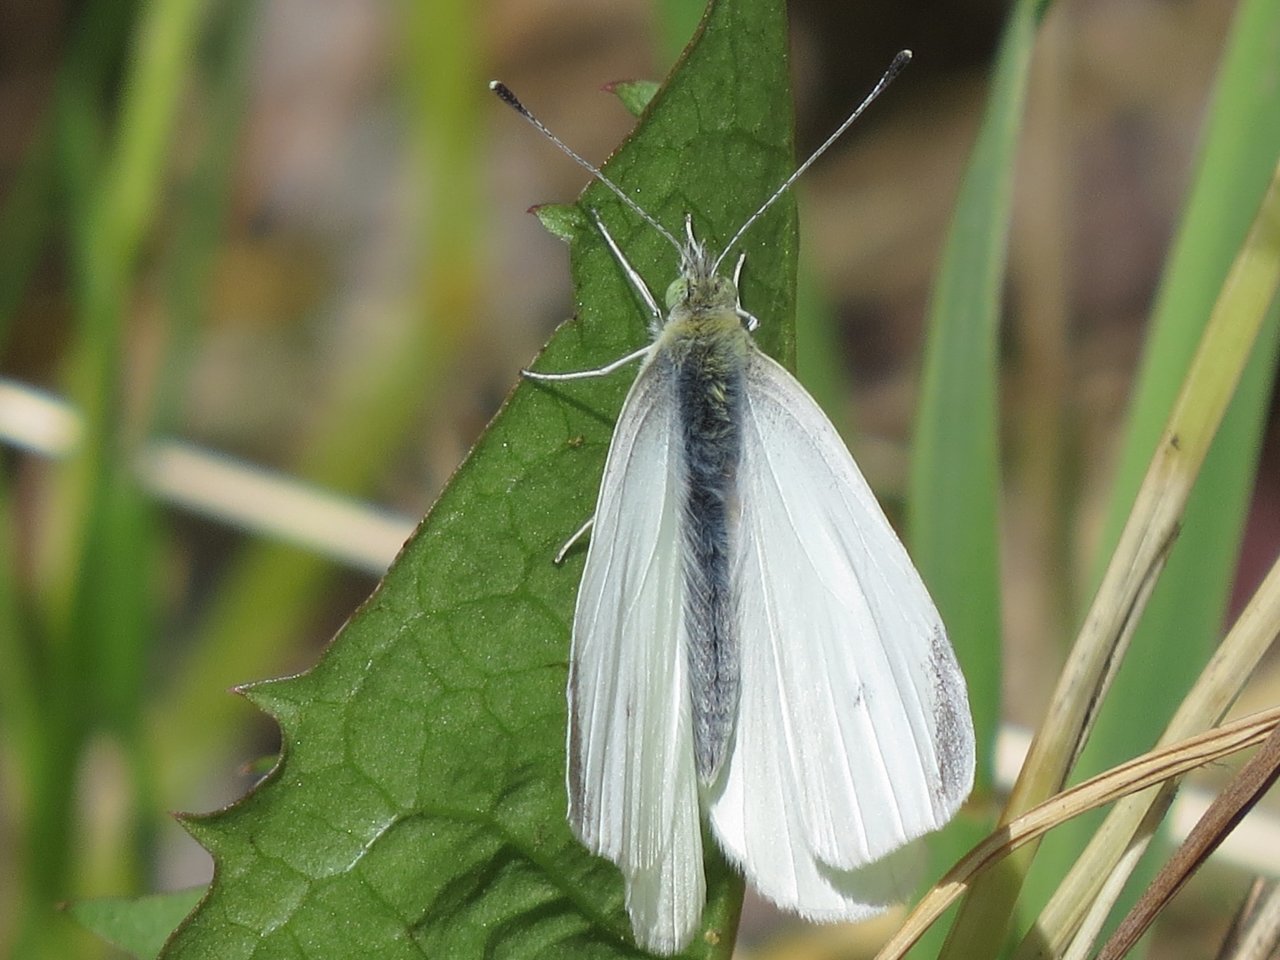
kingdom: Animalia
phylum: Arthropoda
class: Insecta
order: Lepidoptera
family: Pieridae
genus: Pieris
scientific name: Pieris rapae
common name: Cabbage White
